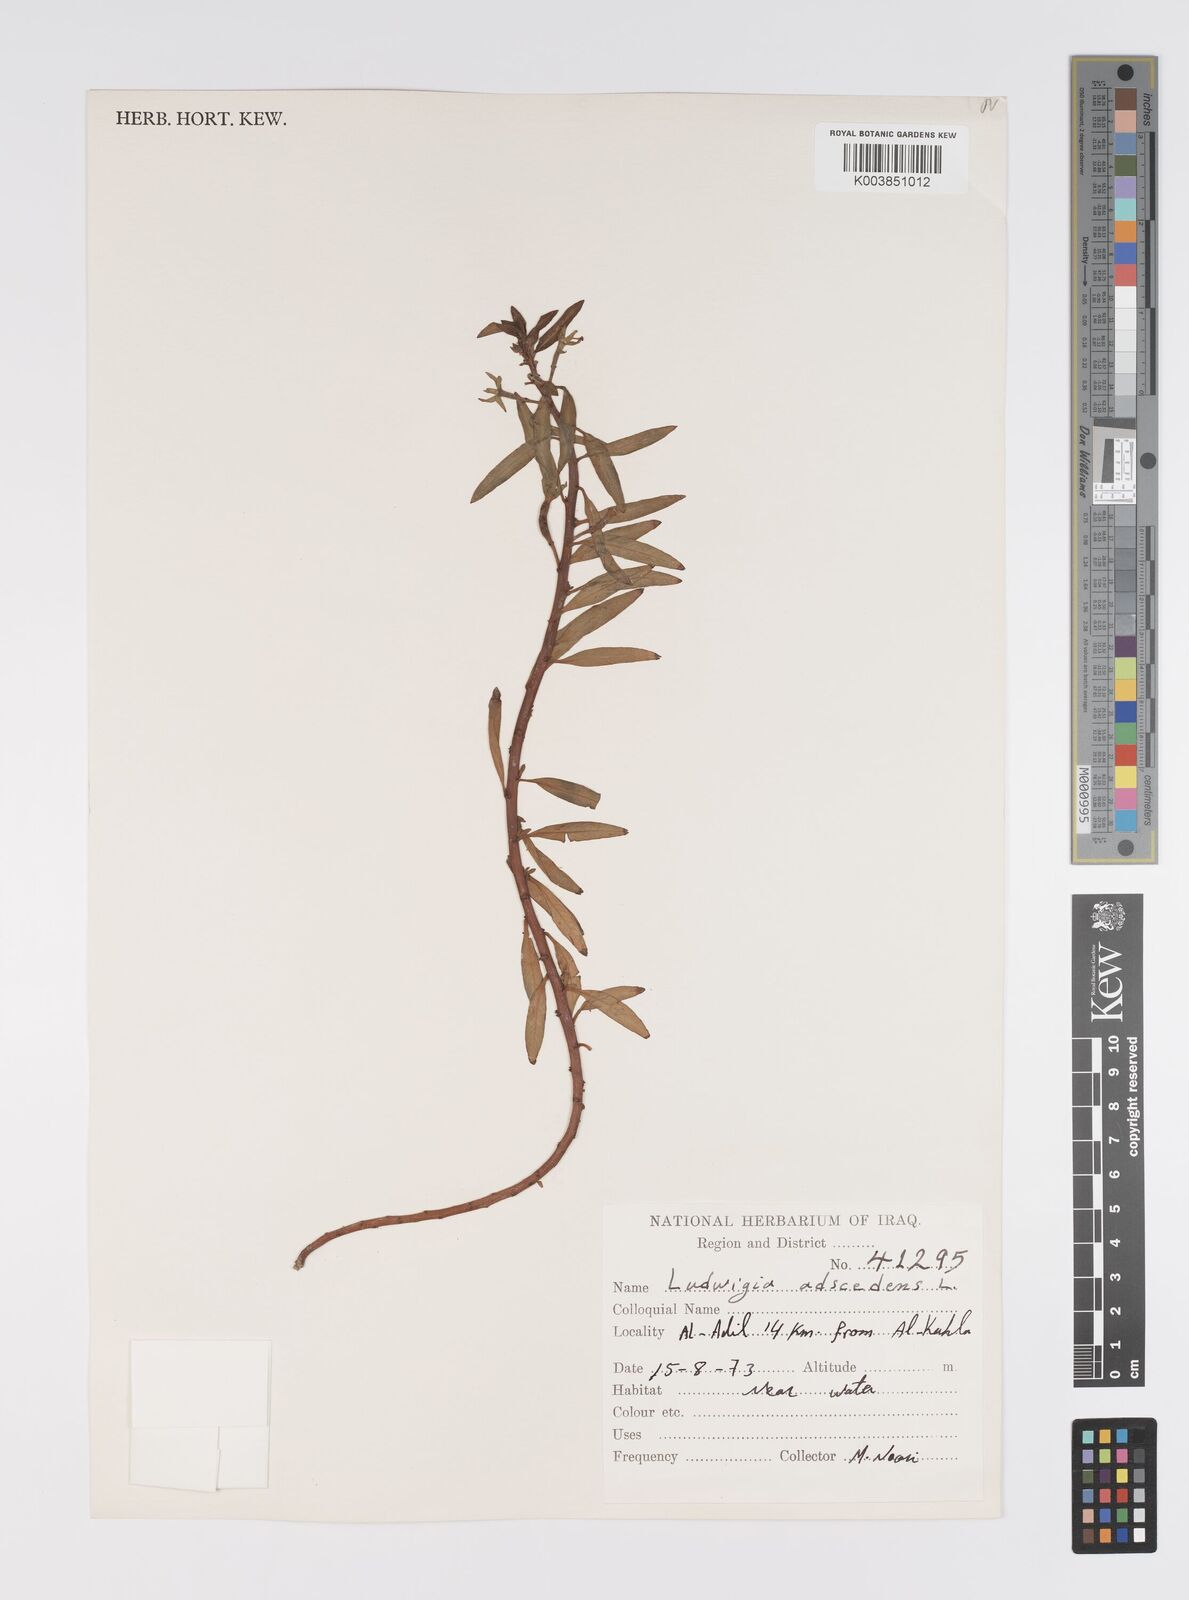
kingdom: Plantae
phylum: Tracheophyta
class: Magnoliopsida
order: Myrtales
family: Onagraceae
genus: Ludwigia
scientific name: Ludwigia adscendens
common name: Creeping water primrose
